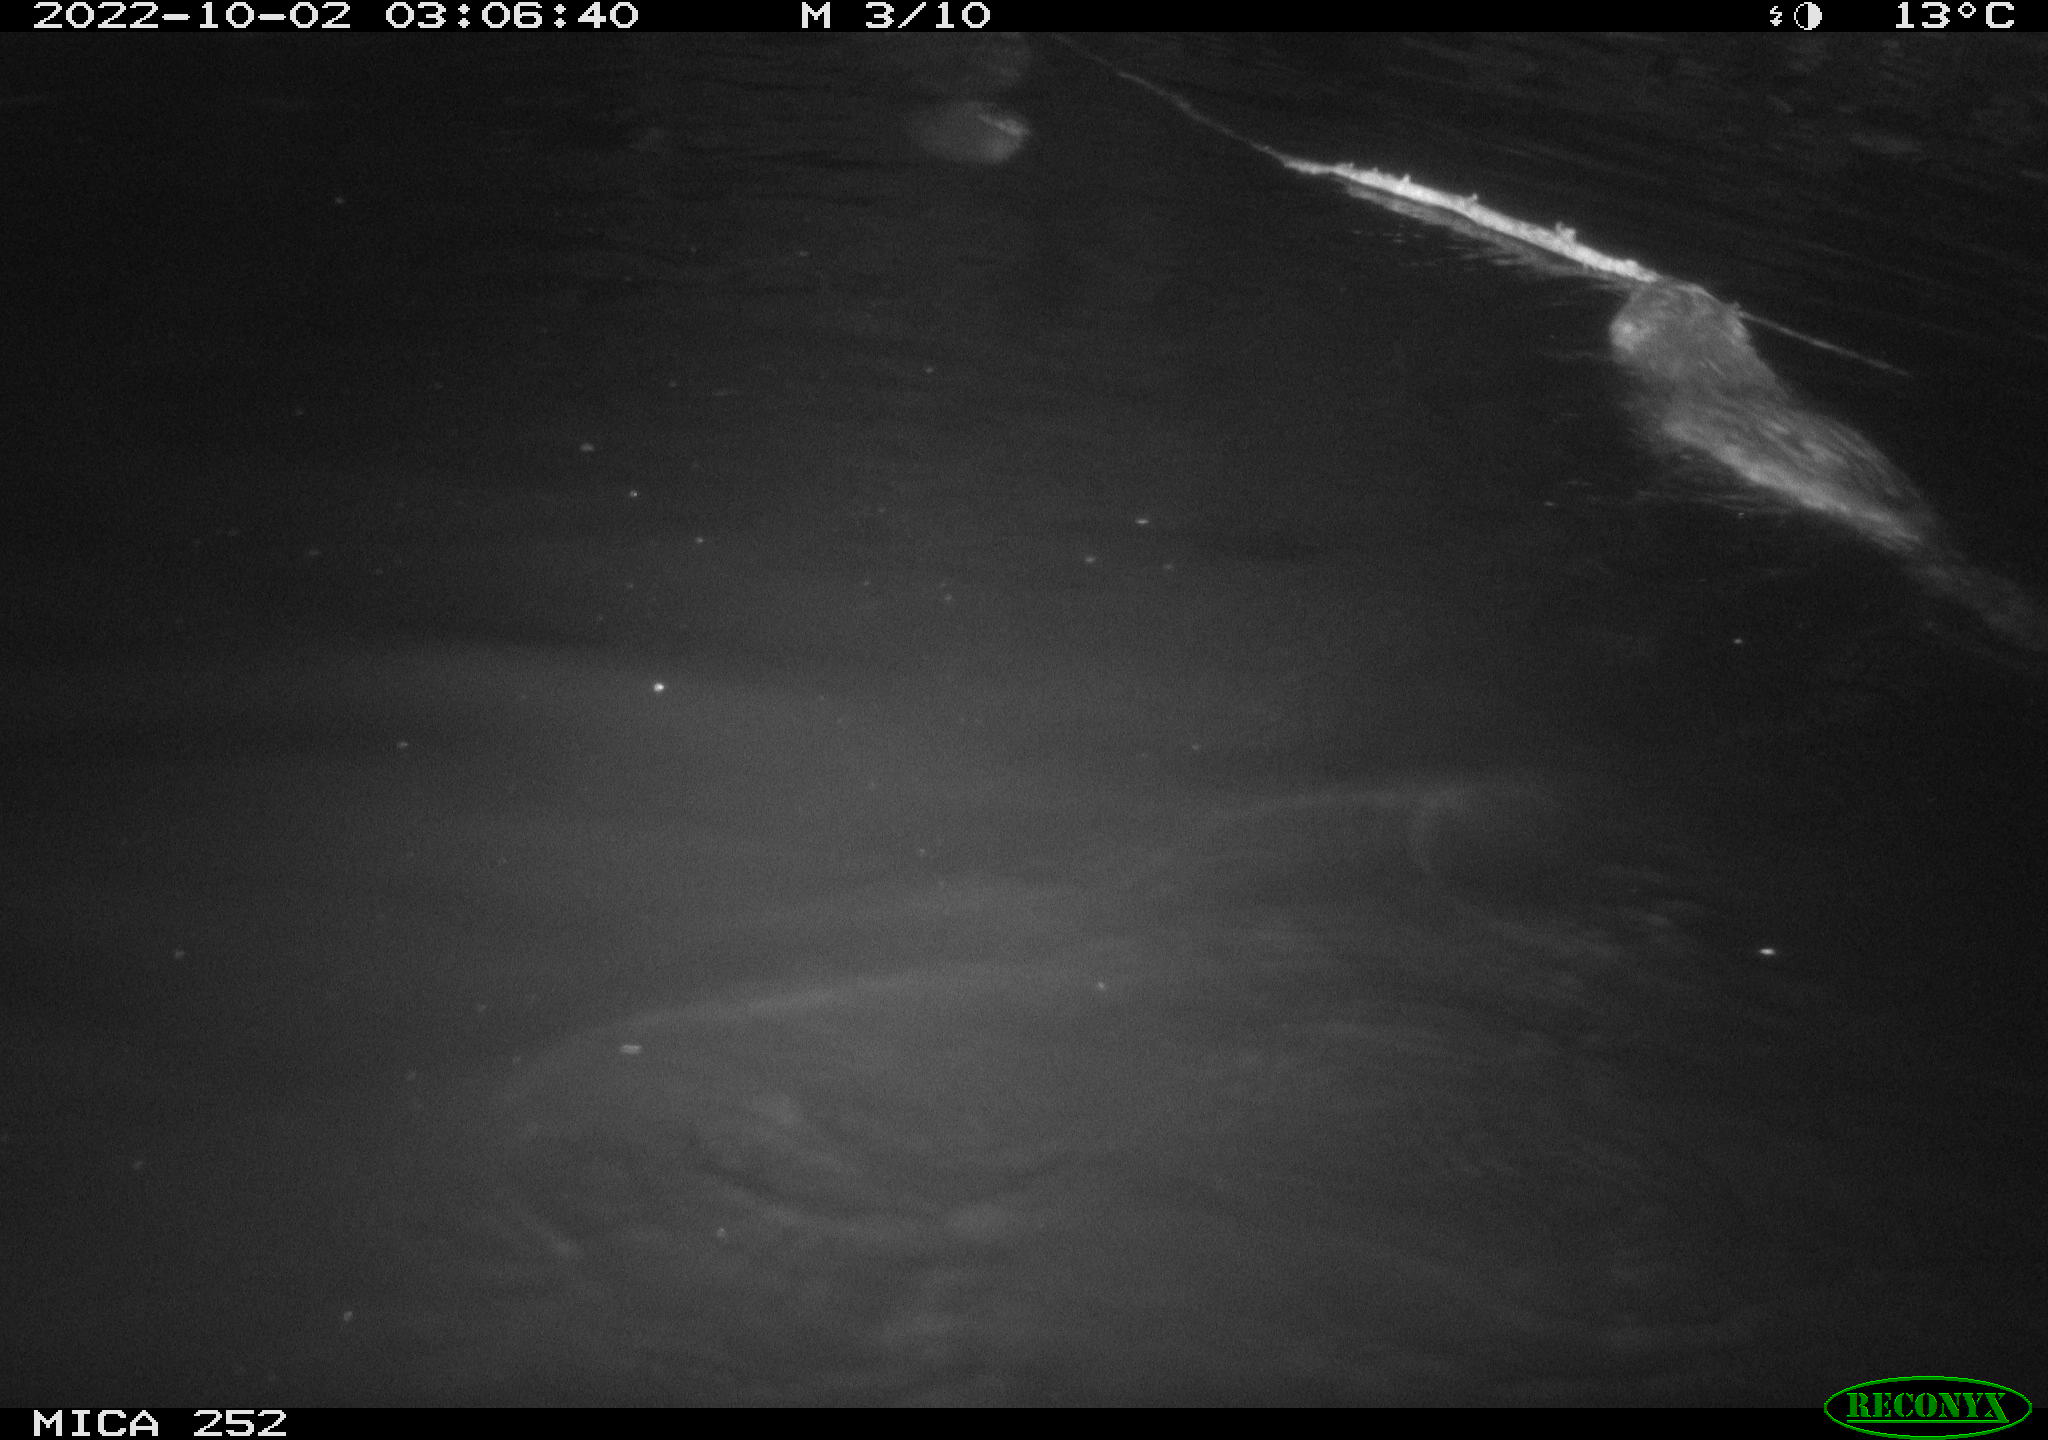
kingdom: Animalia
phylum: Chordata
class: Mammalia
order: Rodentia
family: Castoridae
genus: Castor
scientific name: Castor fiber
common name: Eurasian beaver
